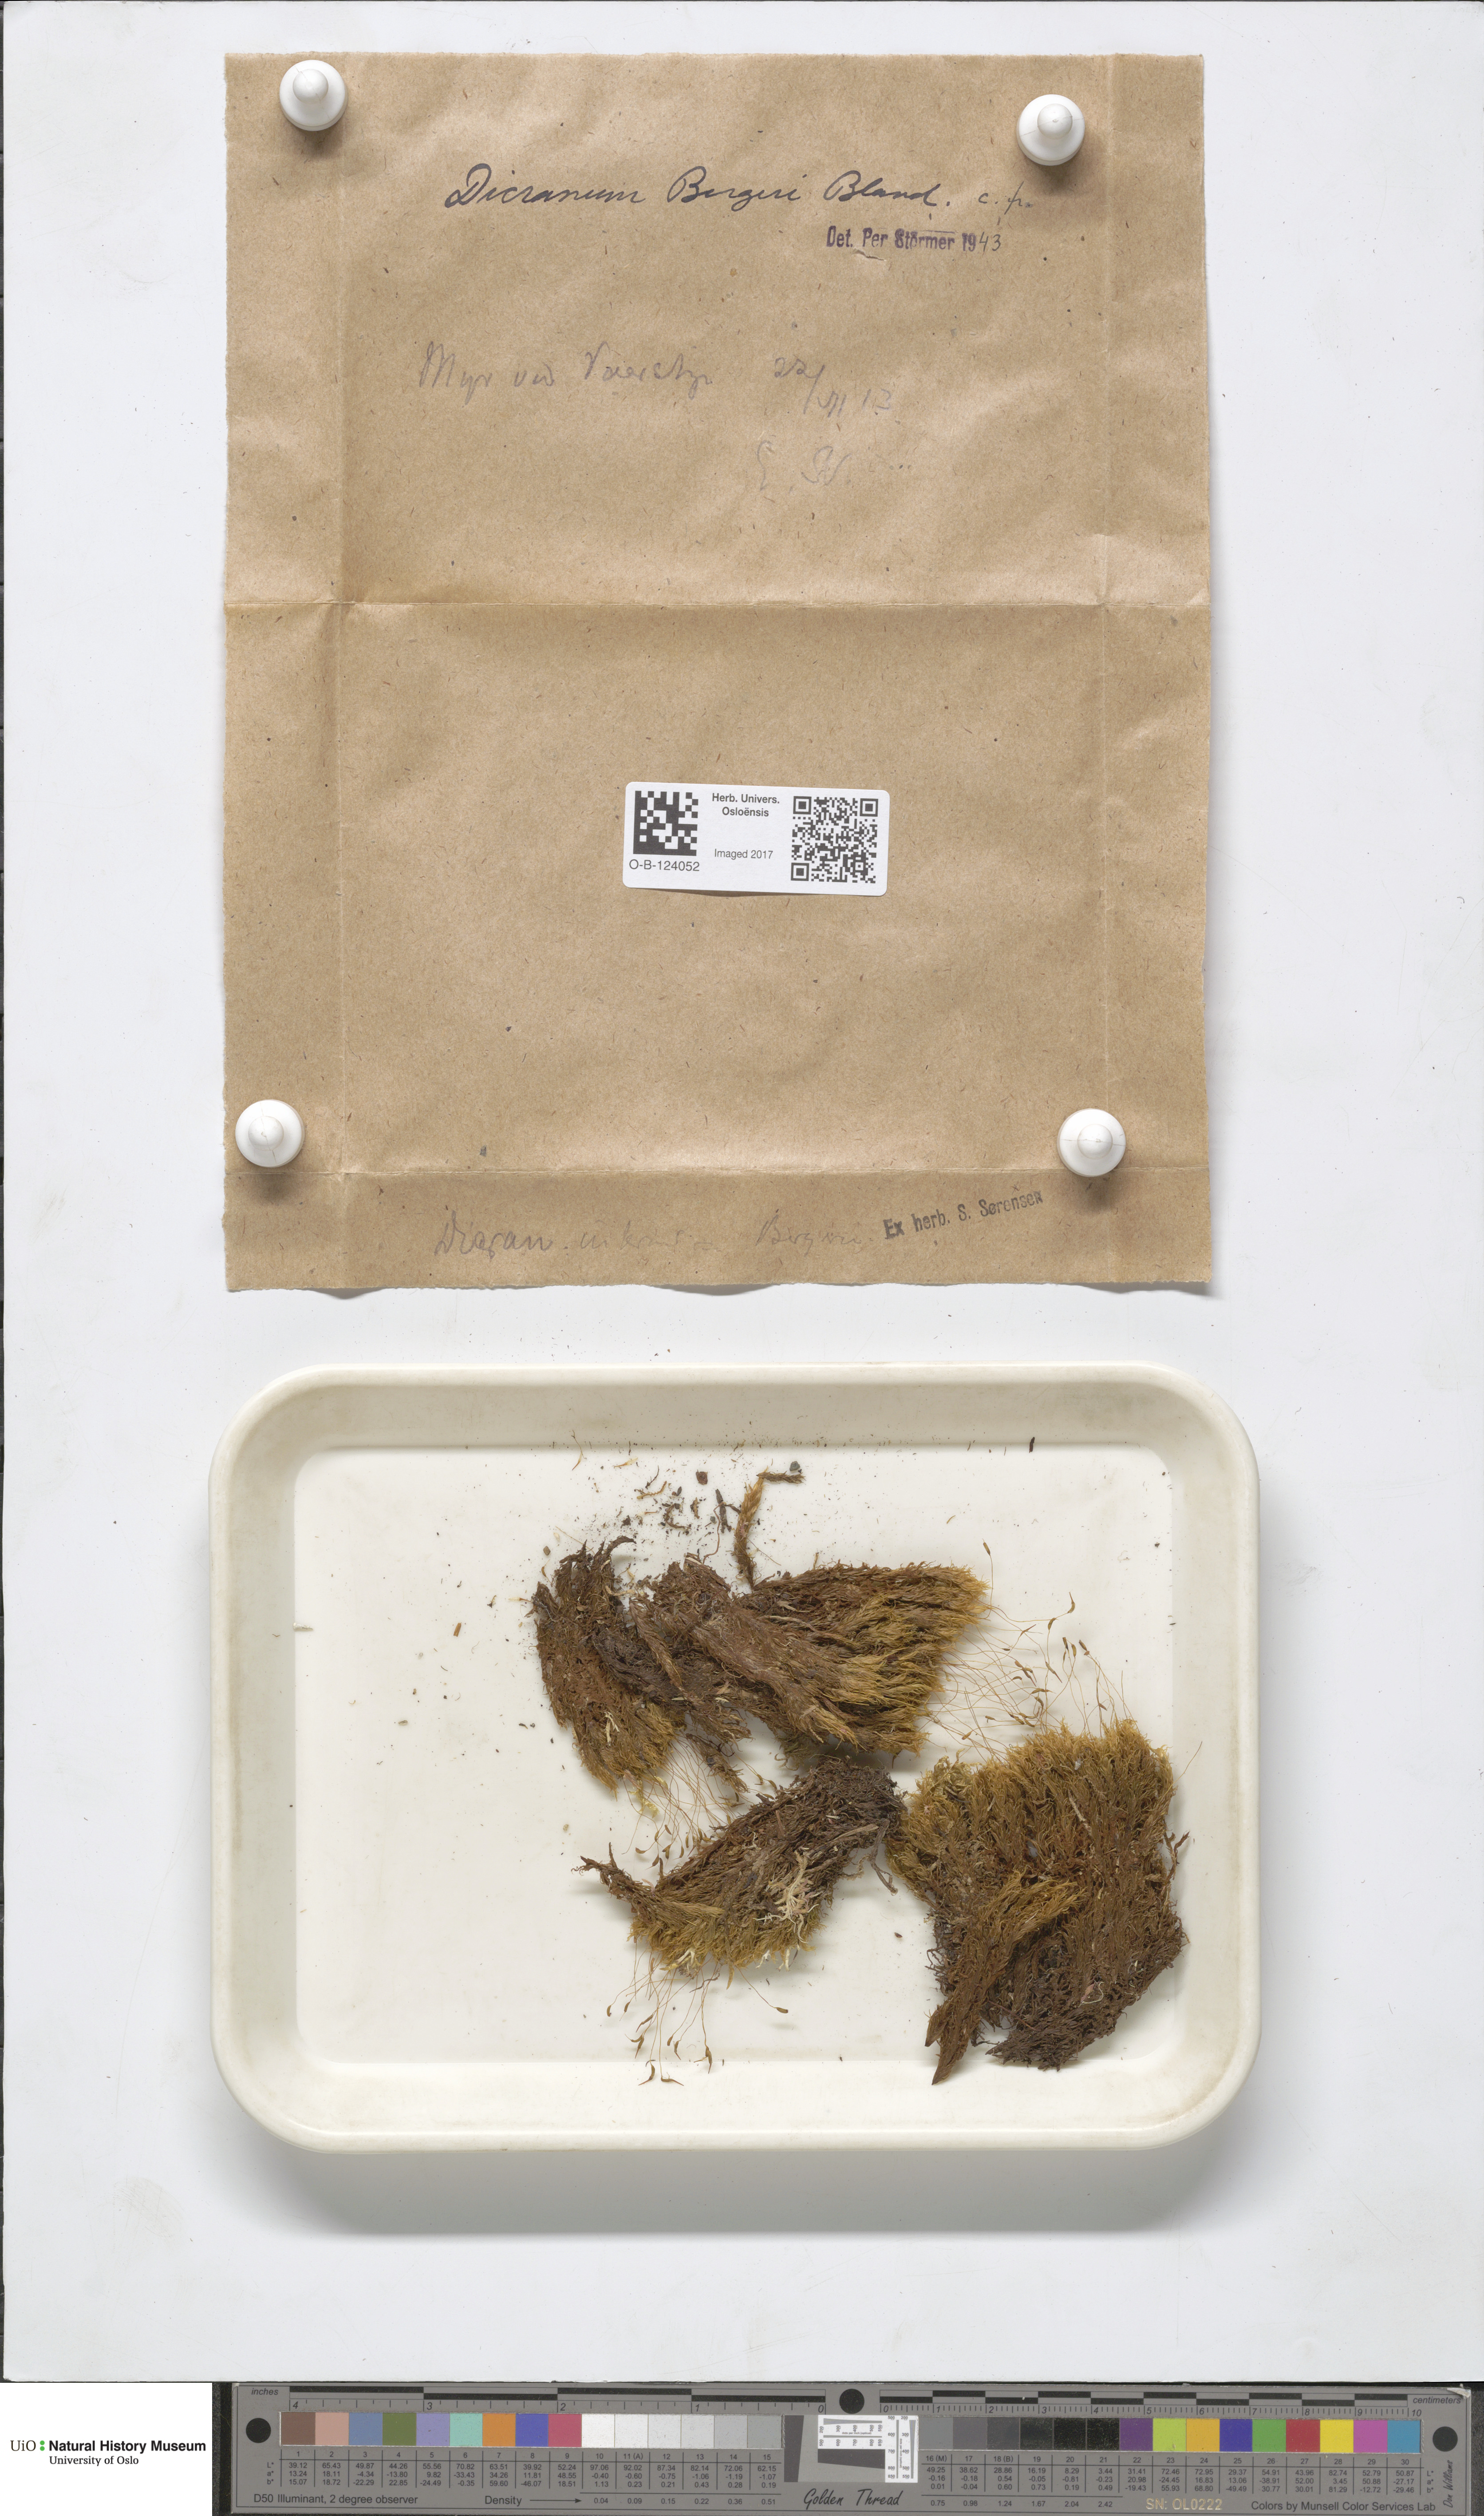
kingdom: Plantae
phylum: Bryophyta
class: Bryopsida
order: Dicranales
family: Dicranaceae
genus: Dicranum
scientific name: Dicranum undulatum
